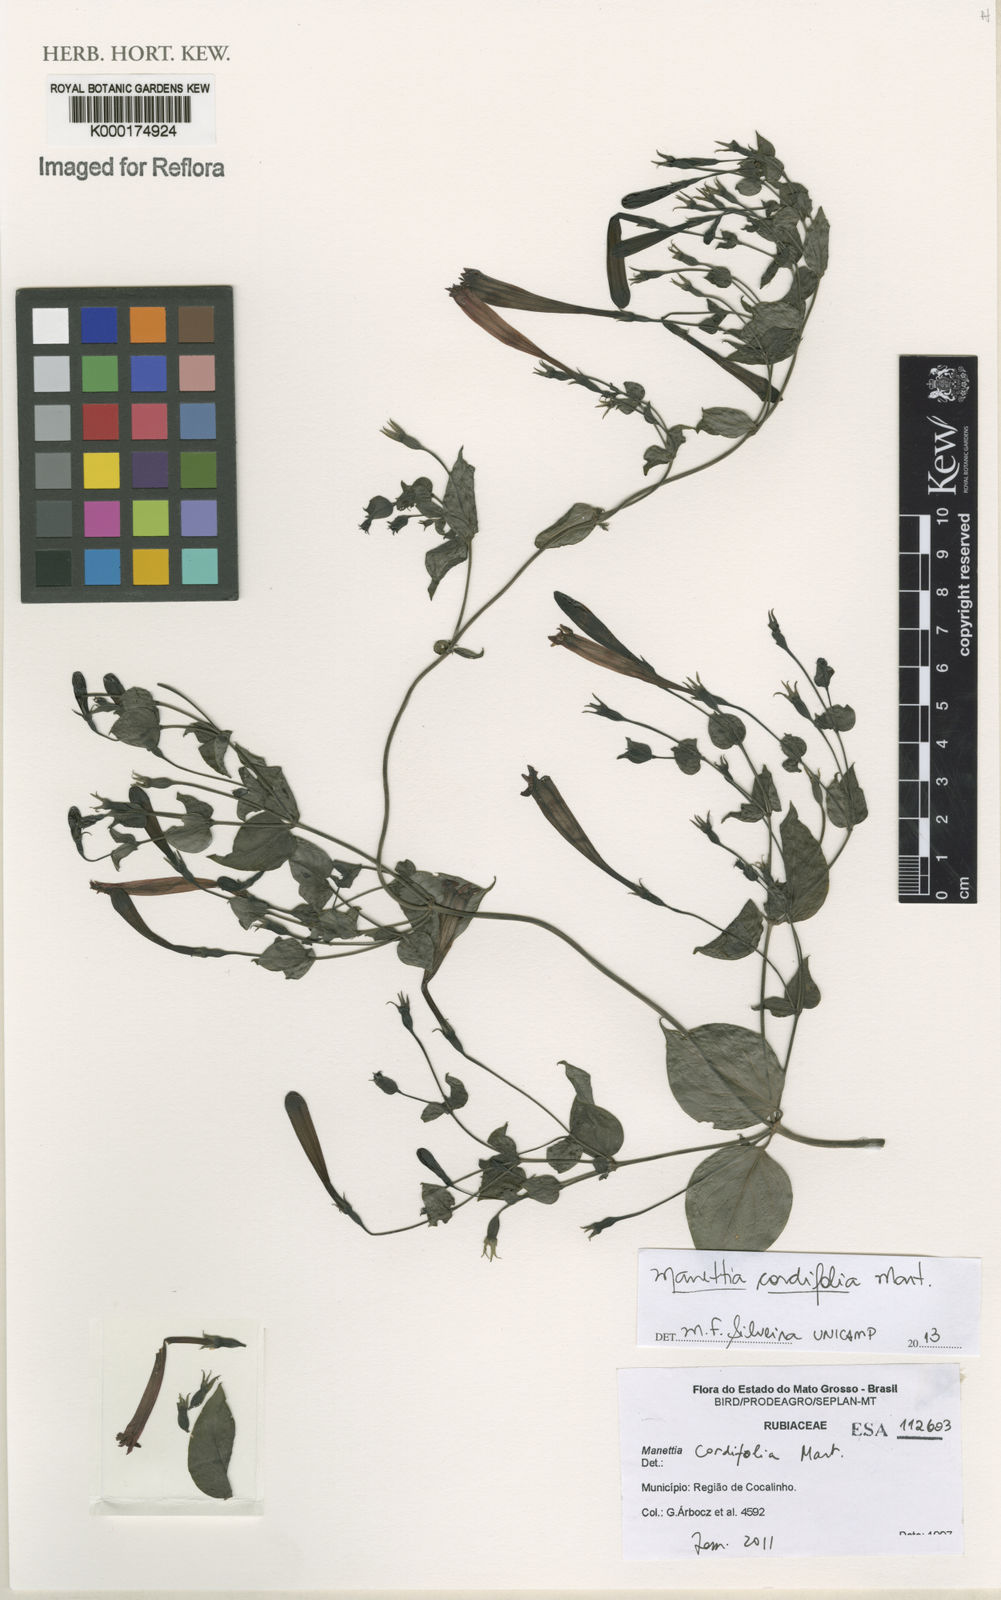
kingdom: Plantae
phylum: Tracheophyta
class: Magnoliopsida
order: Gentianales
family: Rubiaceae
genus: Manettia
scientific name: Manettia cordifolia
